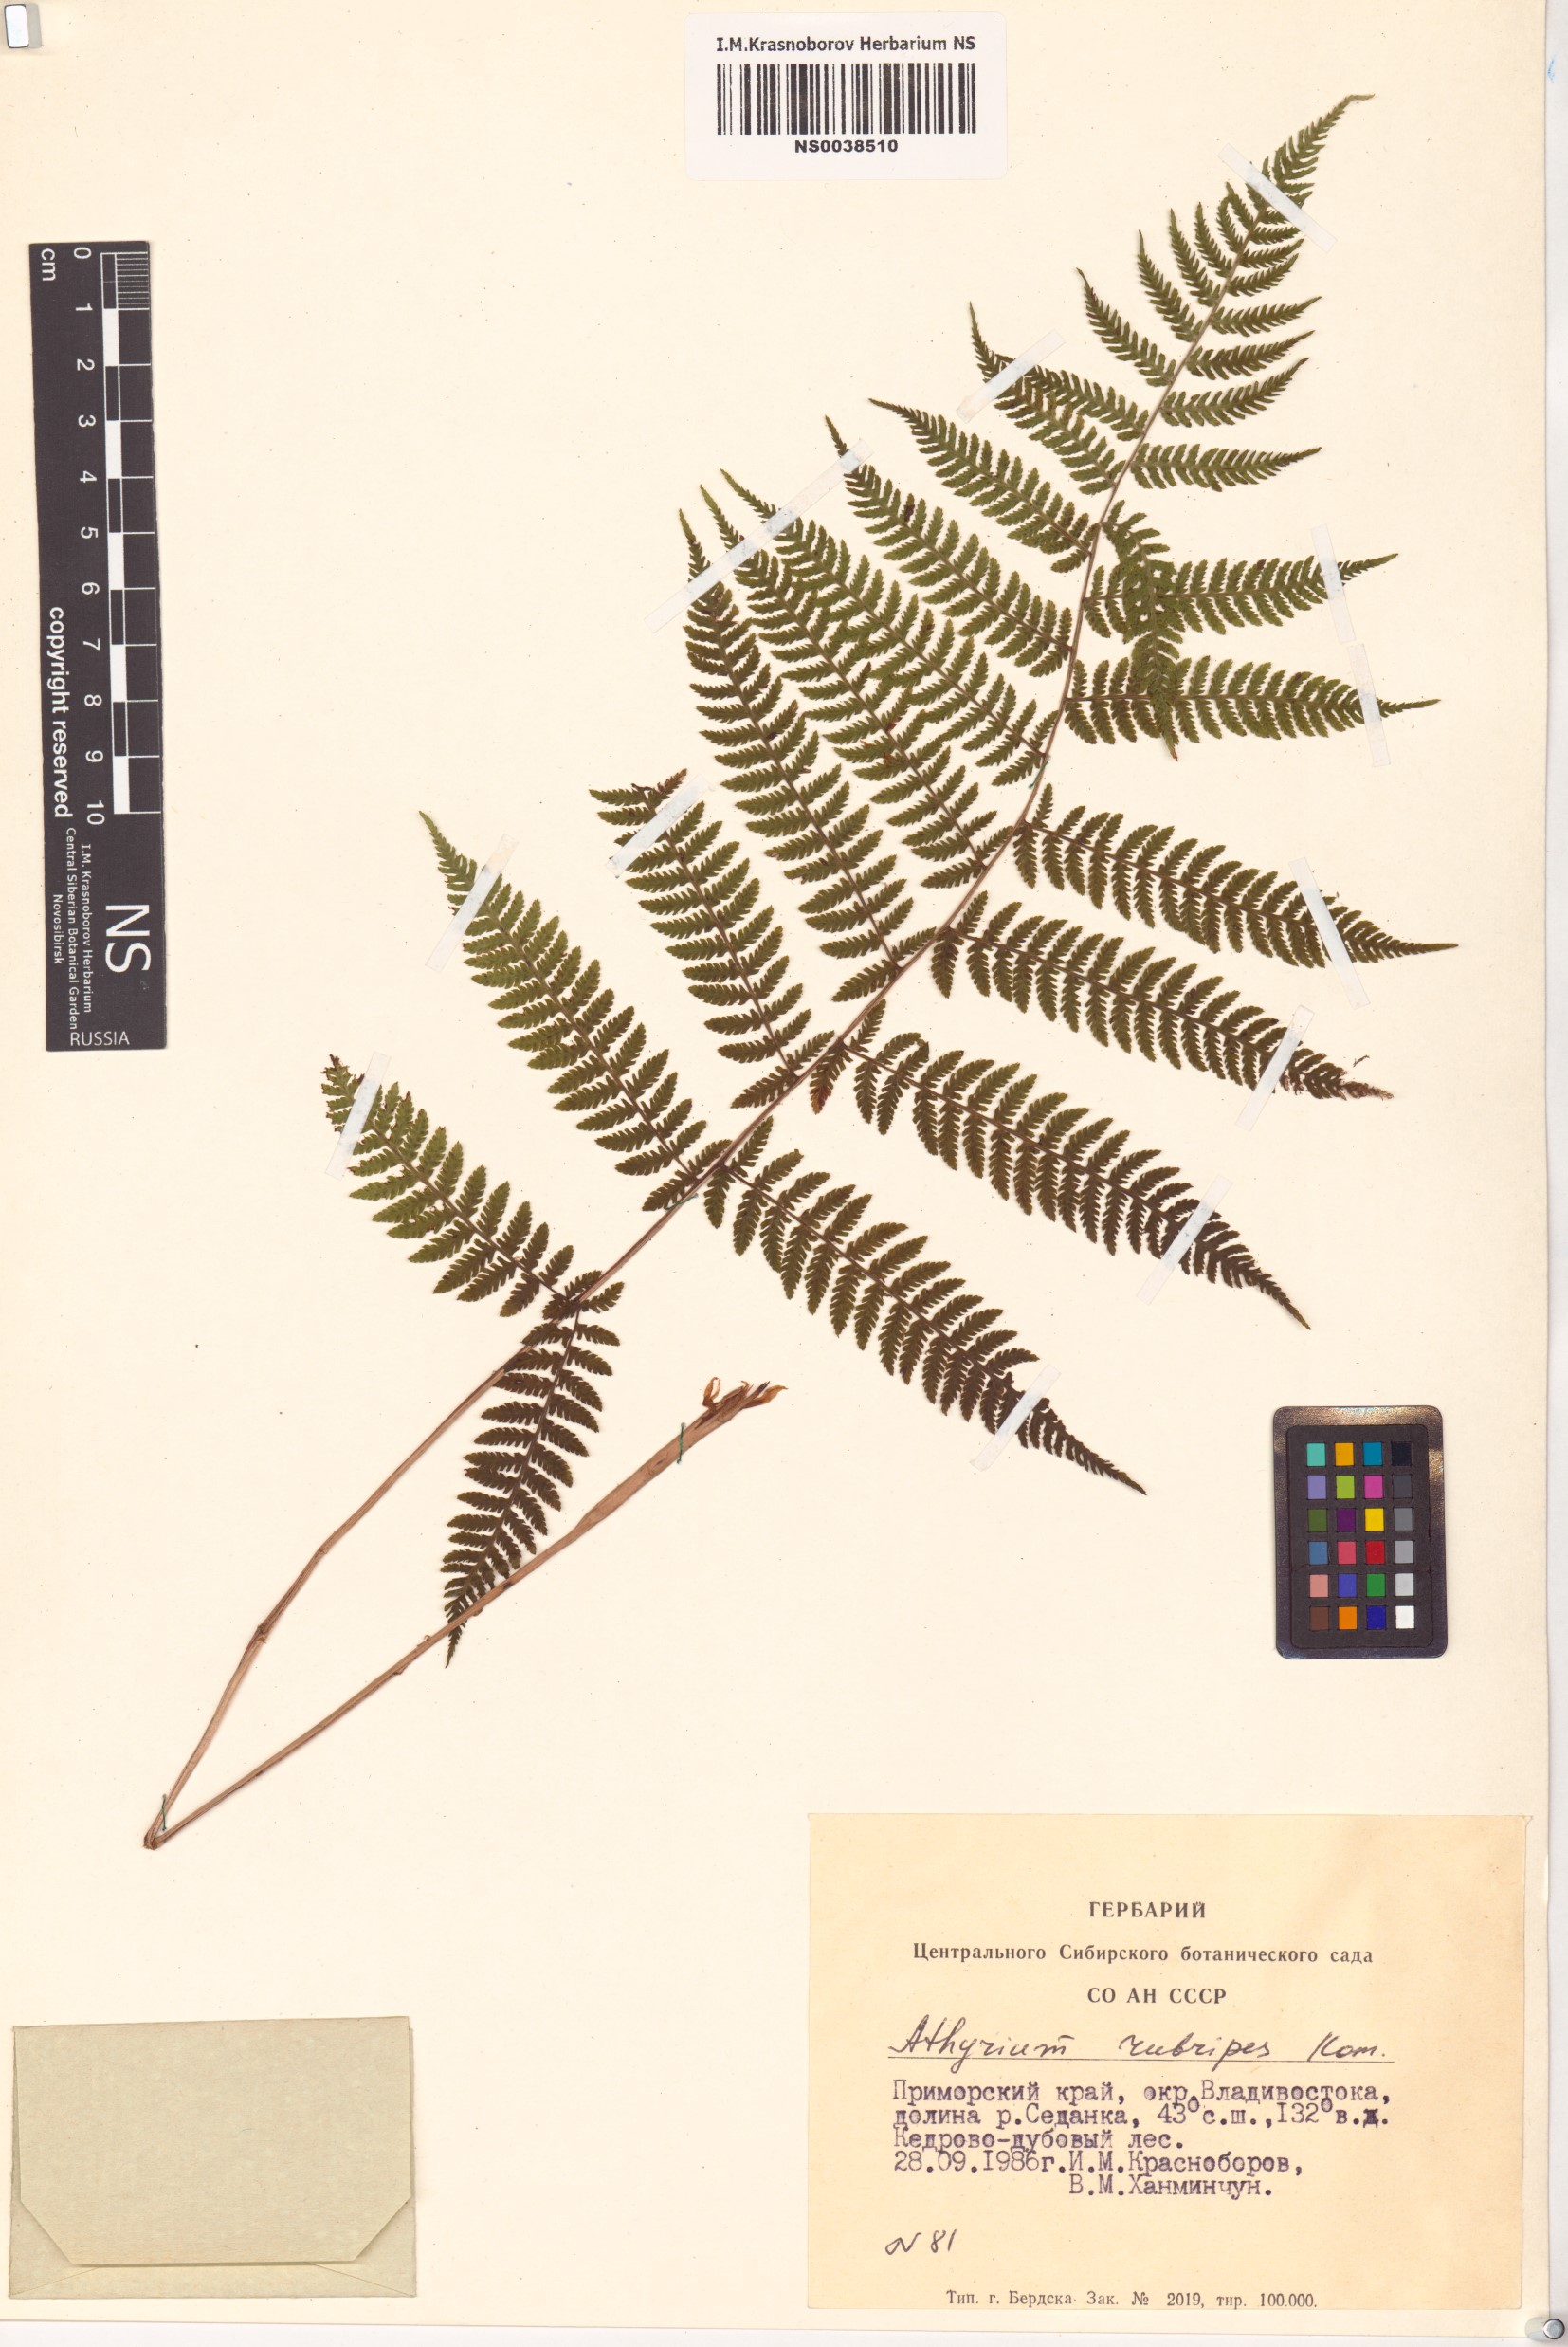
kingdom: Plantae
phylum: Tracheophyta
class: Polypodiopsida
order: Polypodiales
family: Athyriaceae
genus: Athyrium
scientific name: Athyrium rubripes
